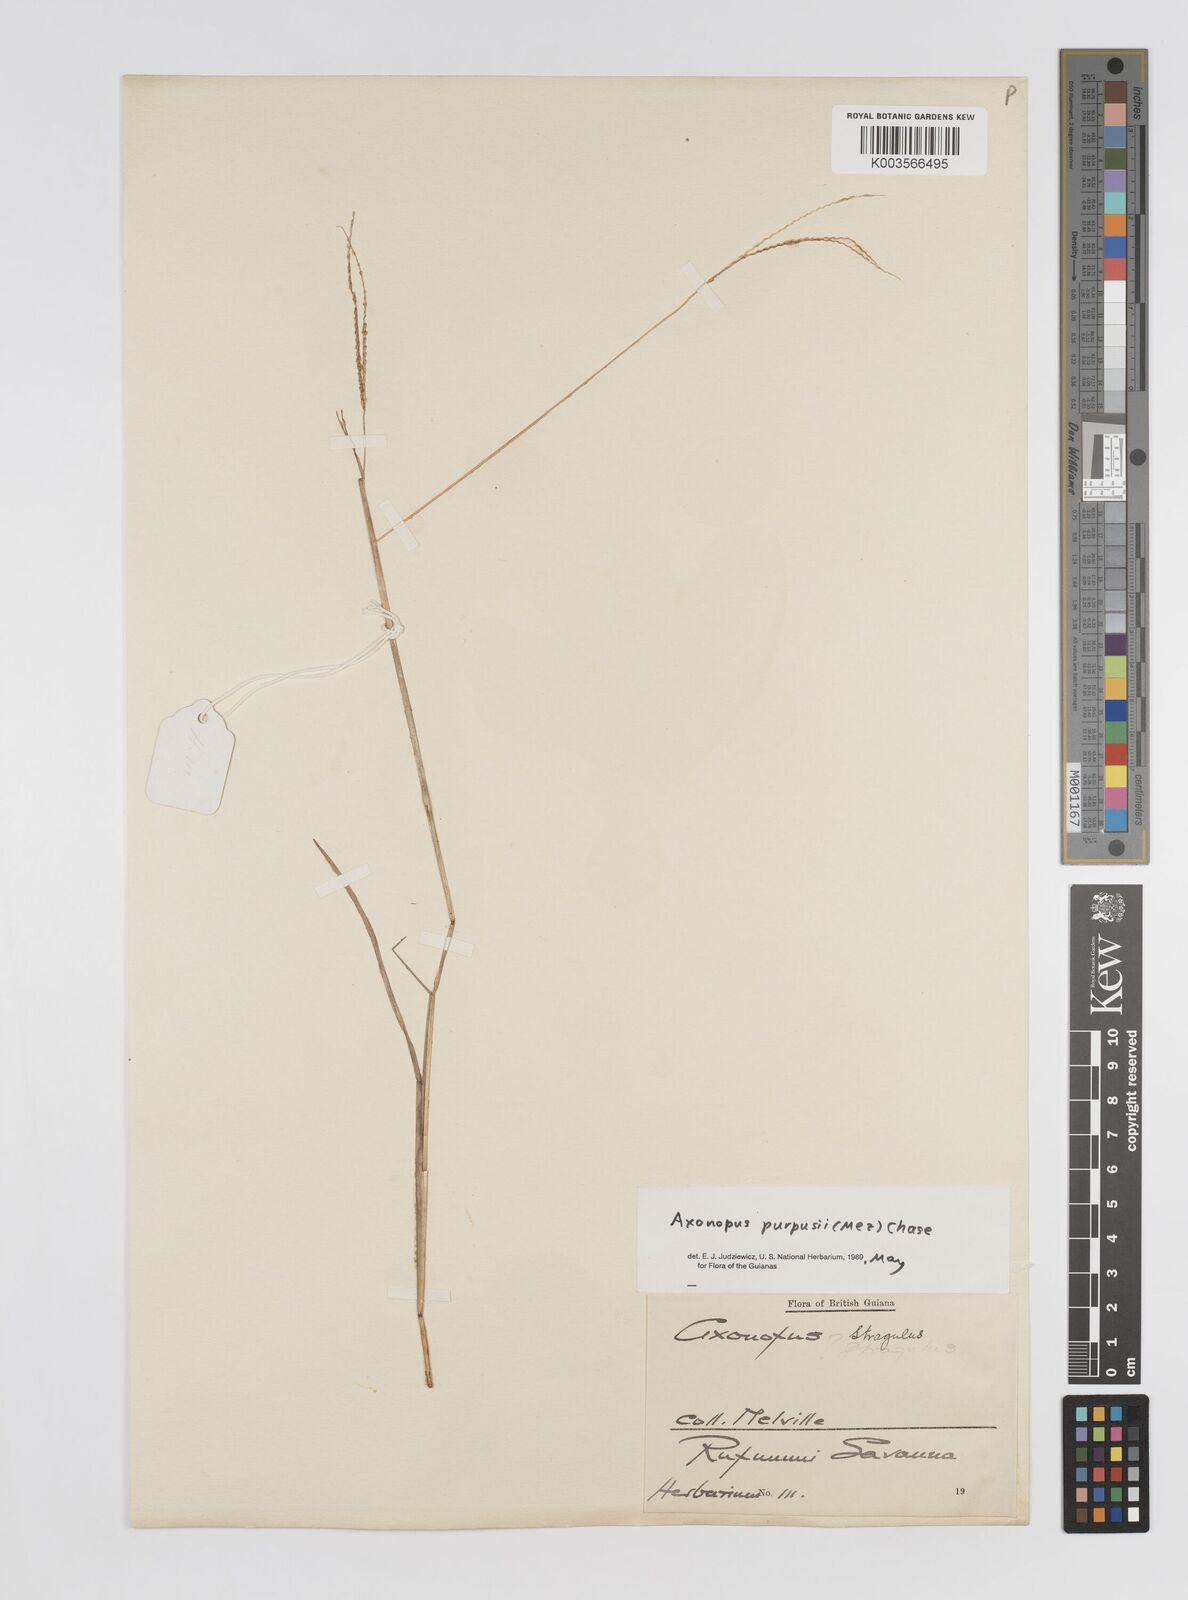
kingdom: Plantae
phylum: Tracheophyta
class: Liliopsida
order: Poales
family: Poaceae
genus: Axonopus
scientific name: Axonopus purpusii
